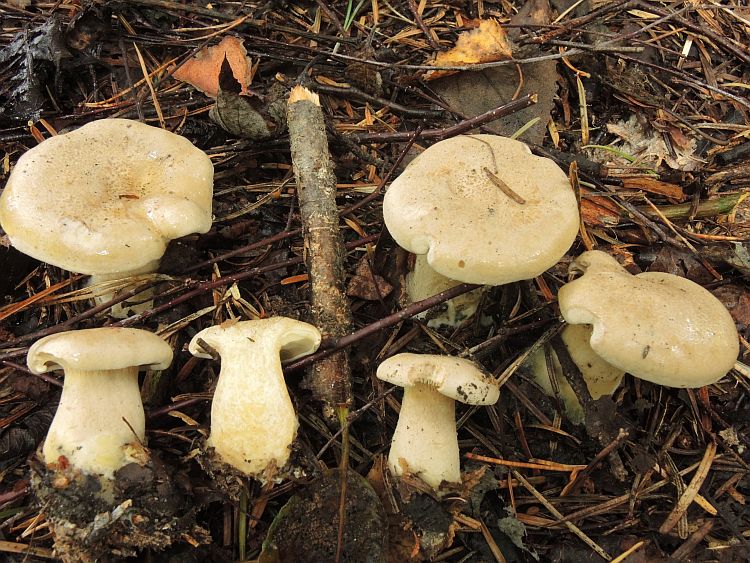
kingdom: Fungi
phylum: Basidiomycota
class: Agaricomycetes
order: Agaricales
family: Pseudoclitocybaceae
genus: Clitopaxillus
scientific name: Clitopaxillus fibulatus
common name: bestøvlet tragthat
